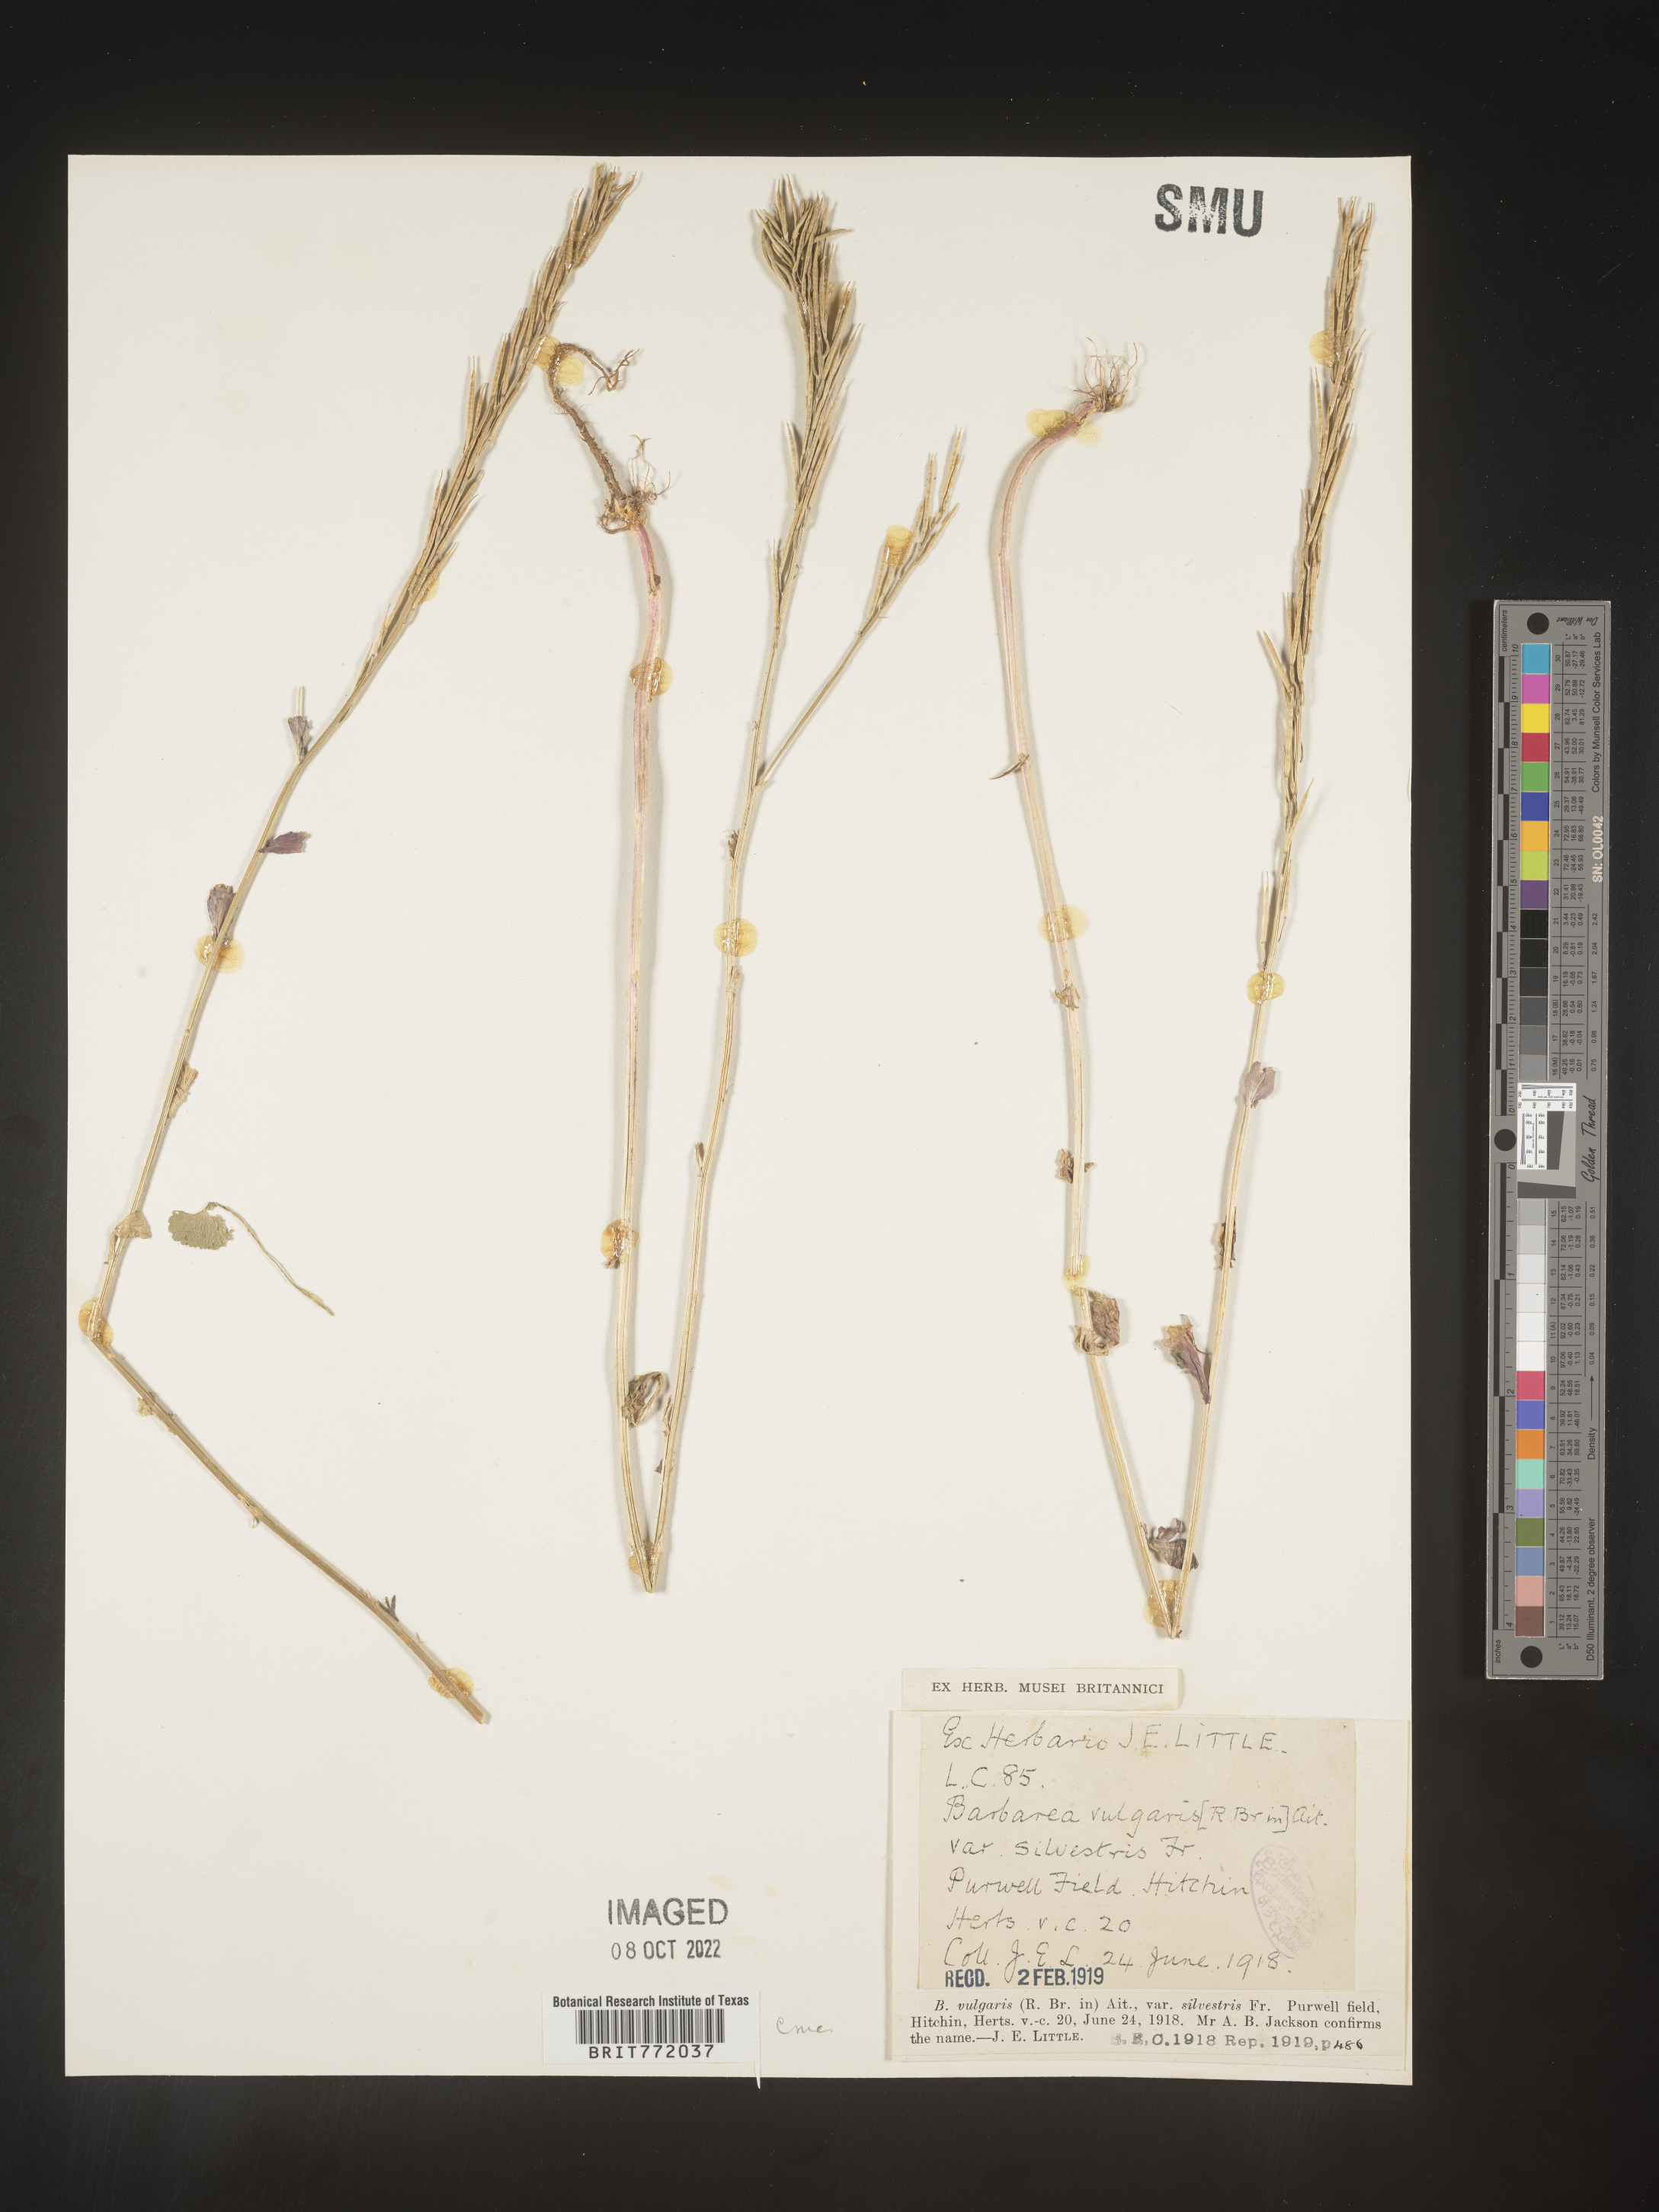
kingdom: Plantae
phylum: Tracheophyta
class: Magnoliopsida
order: Brassicales
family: Brassicaceae
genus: Barbarea
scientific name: Barbarea
